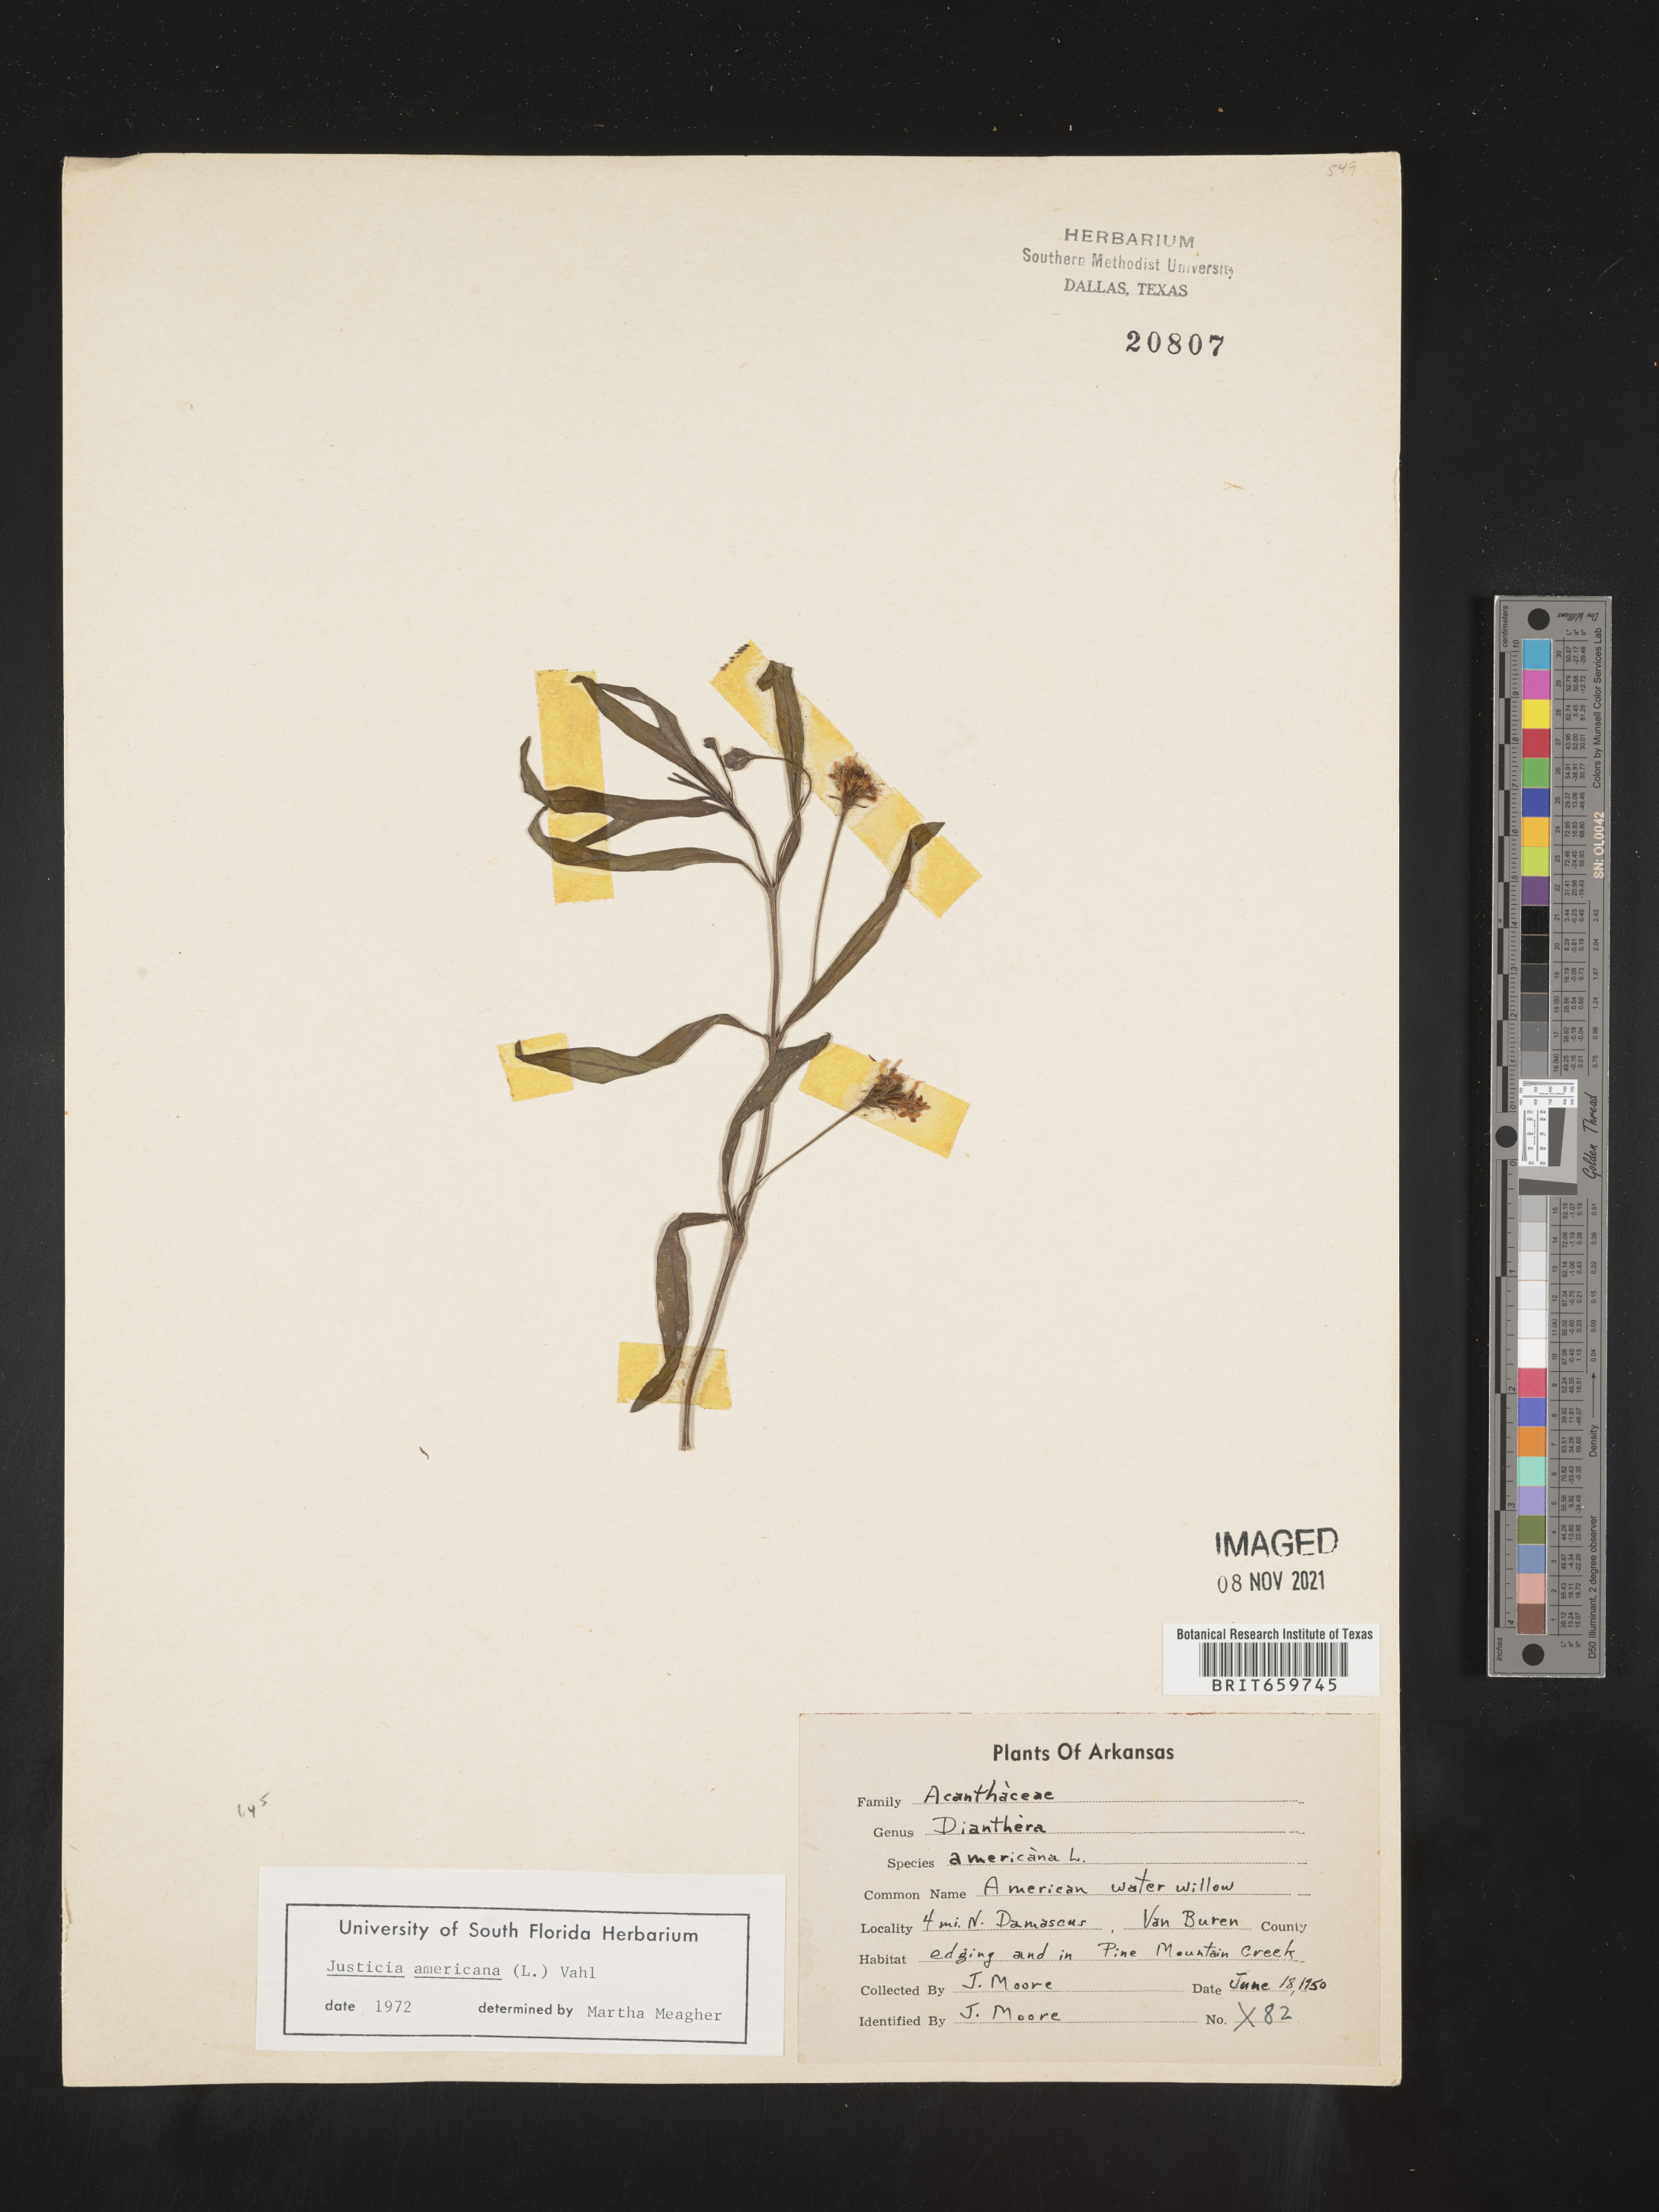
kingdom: Plantae
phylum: Tracheophyta
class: Magnoliopsida
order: Lamiales
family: Acanthaceae
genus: Dianthera
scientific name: Dianthera americana
